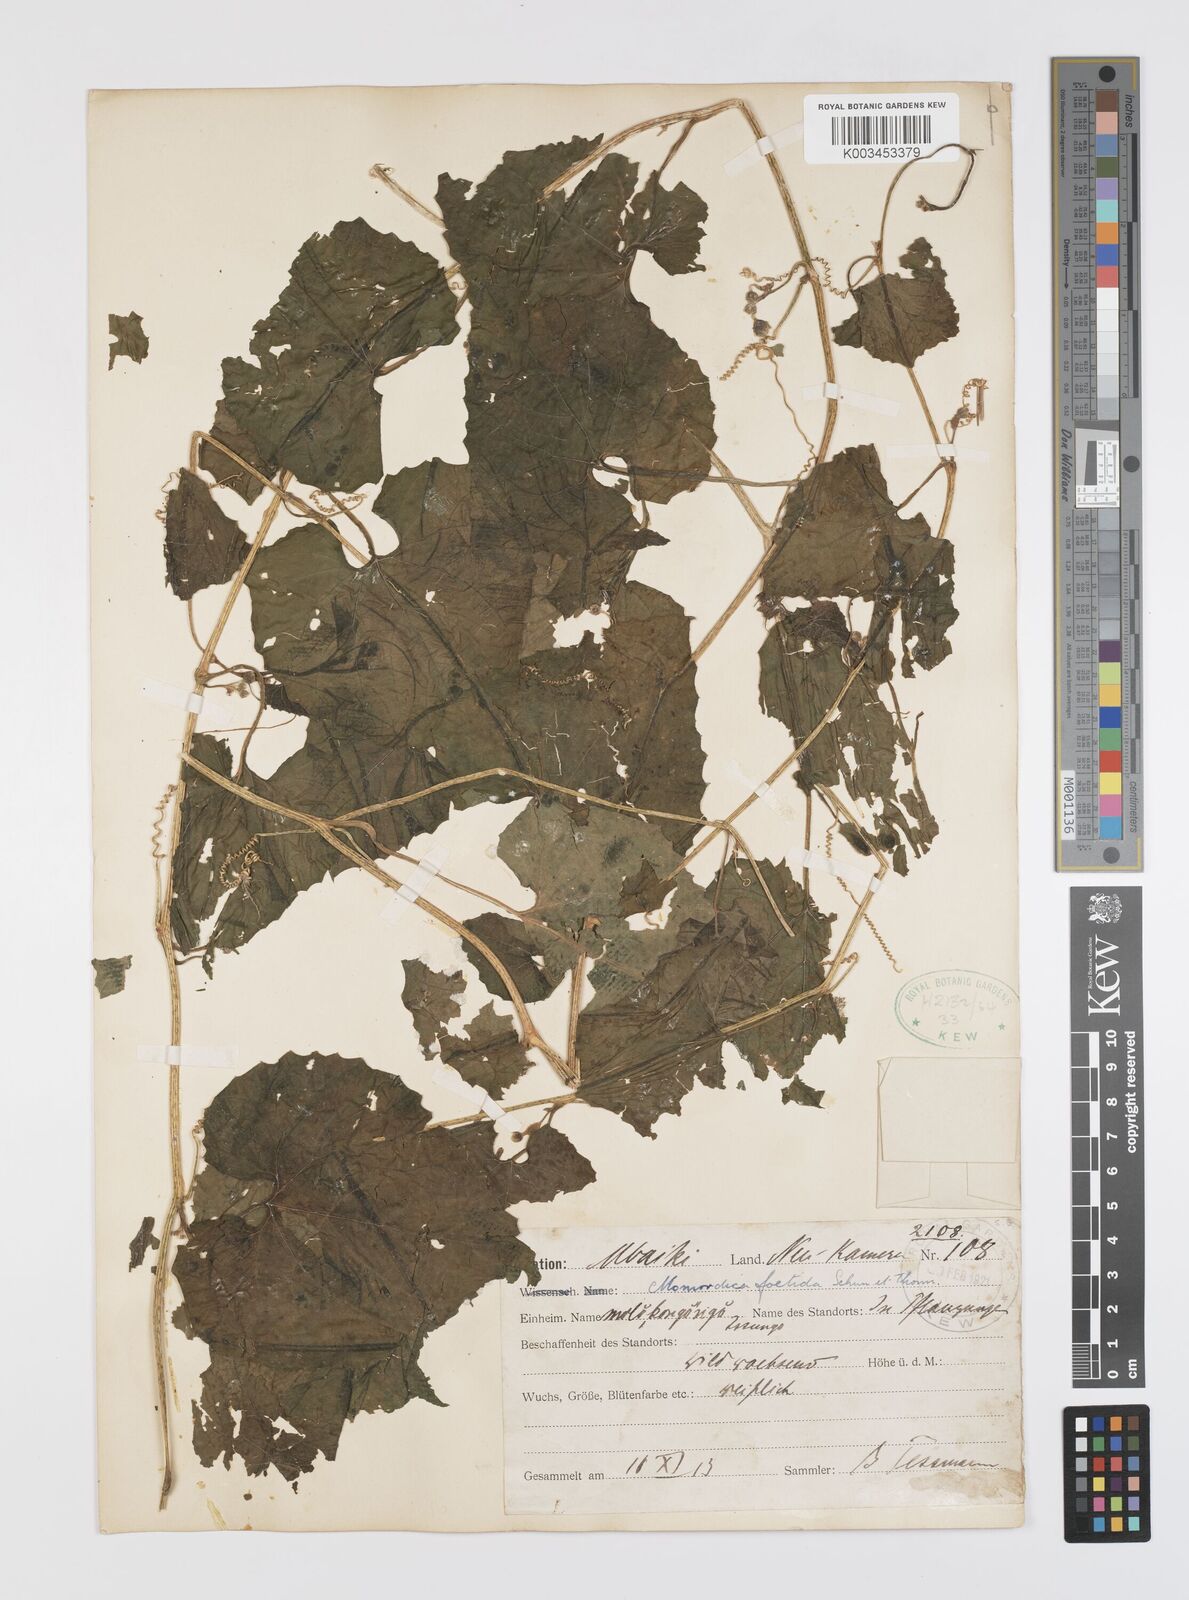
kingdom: Plantae
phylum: Tracheophyta
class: Magnoliopsida
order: Cucurbitales
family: Cucurbitaceae
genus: Momordica
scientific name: Momordica foetida
